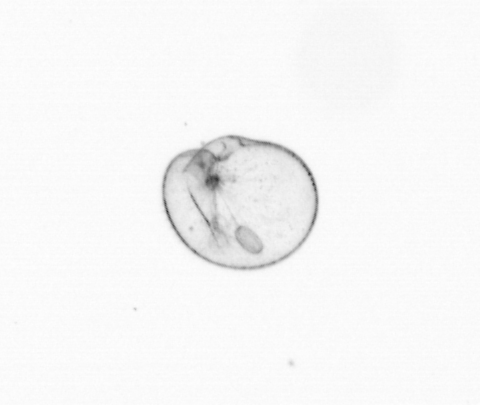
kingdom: Chromista
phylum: Myzozoa
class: Dinophyceae
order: Noctilucales
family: Noctilucaceae
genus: Noctiluca
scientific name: Noctiluca scintillans
